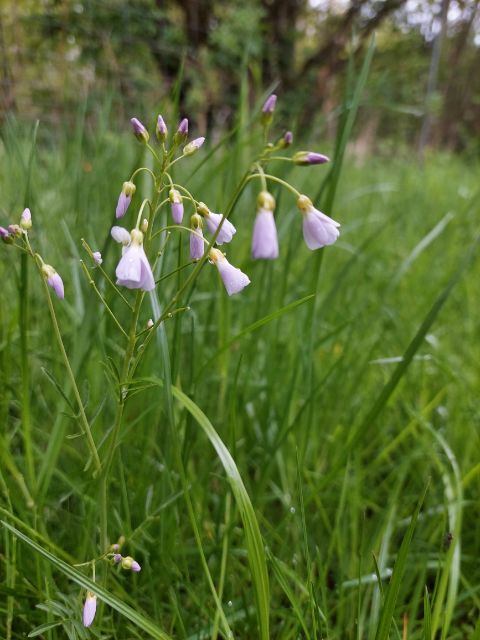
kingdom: Plantae
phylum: Tracheophyta
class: Magnoliopsida
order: Brassicales
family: Brassicaceae
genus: Cardamine
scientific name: Cardamine pratensis
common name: Engkarse
